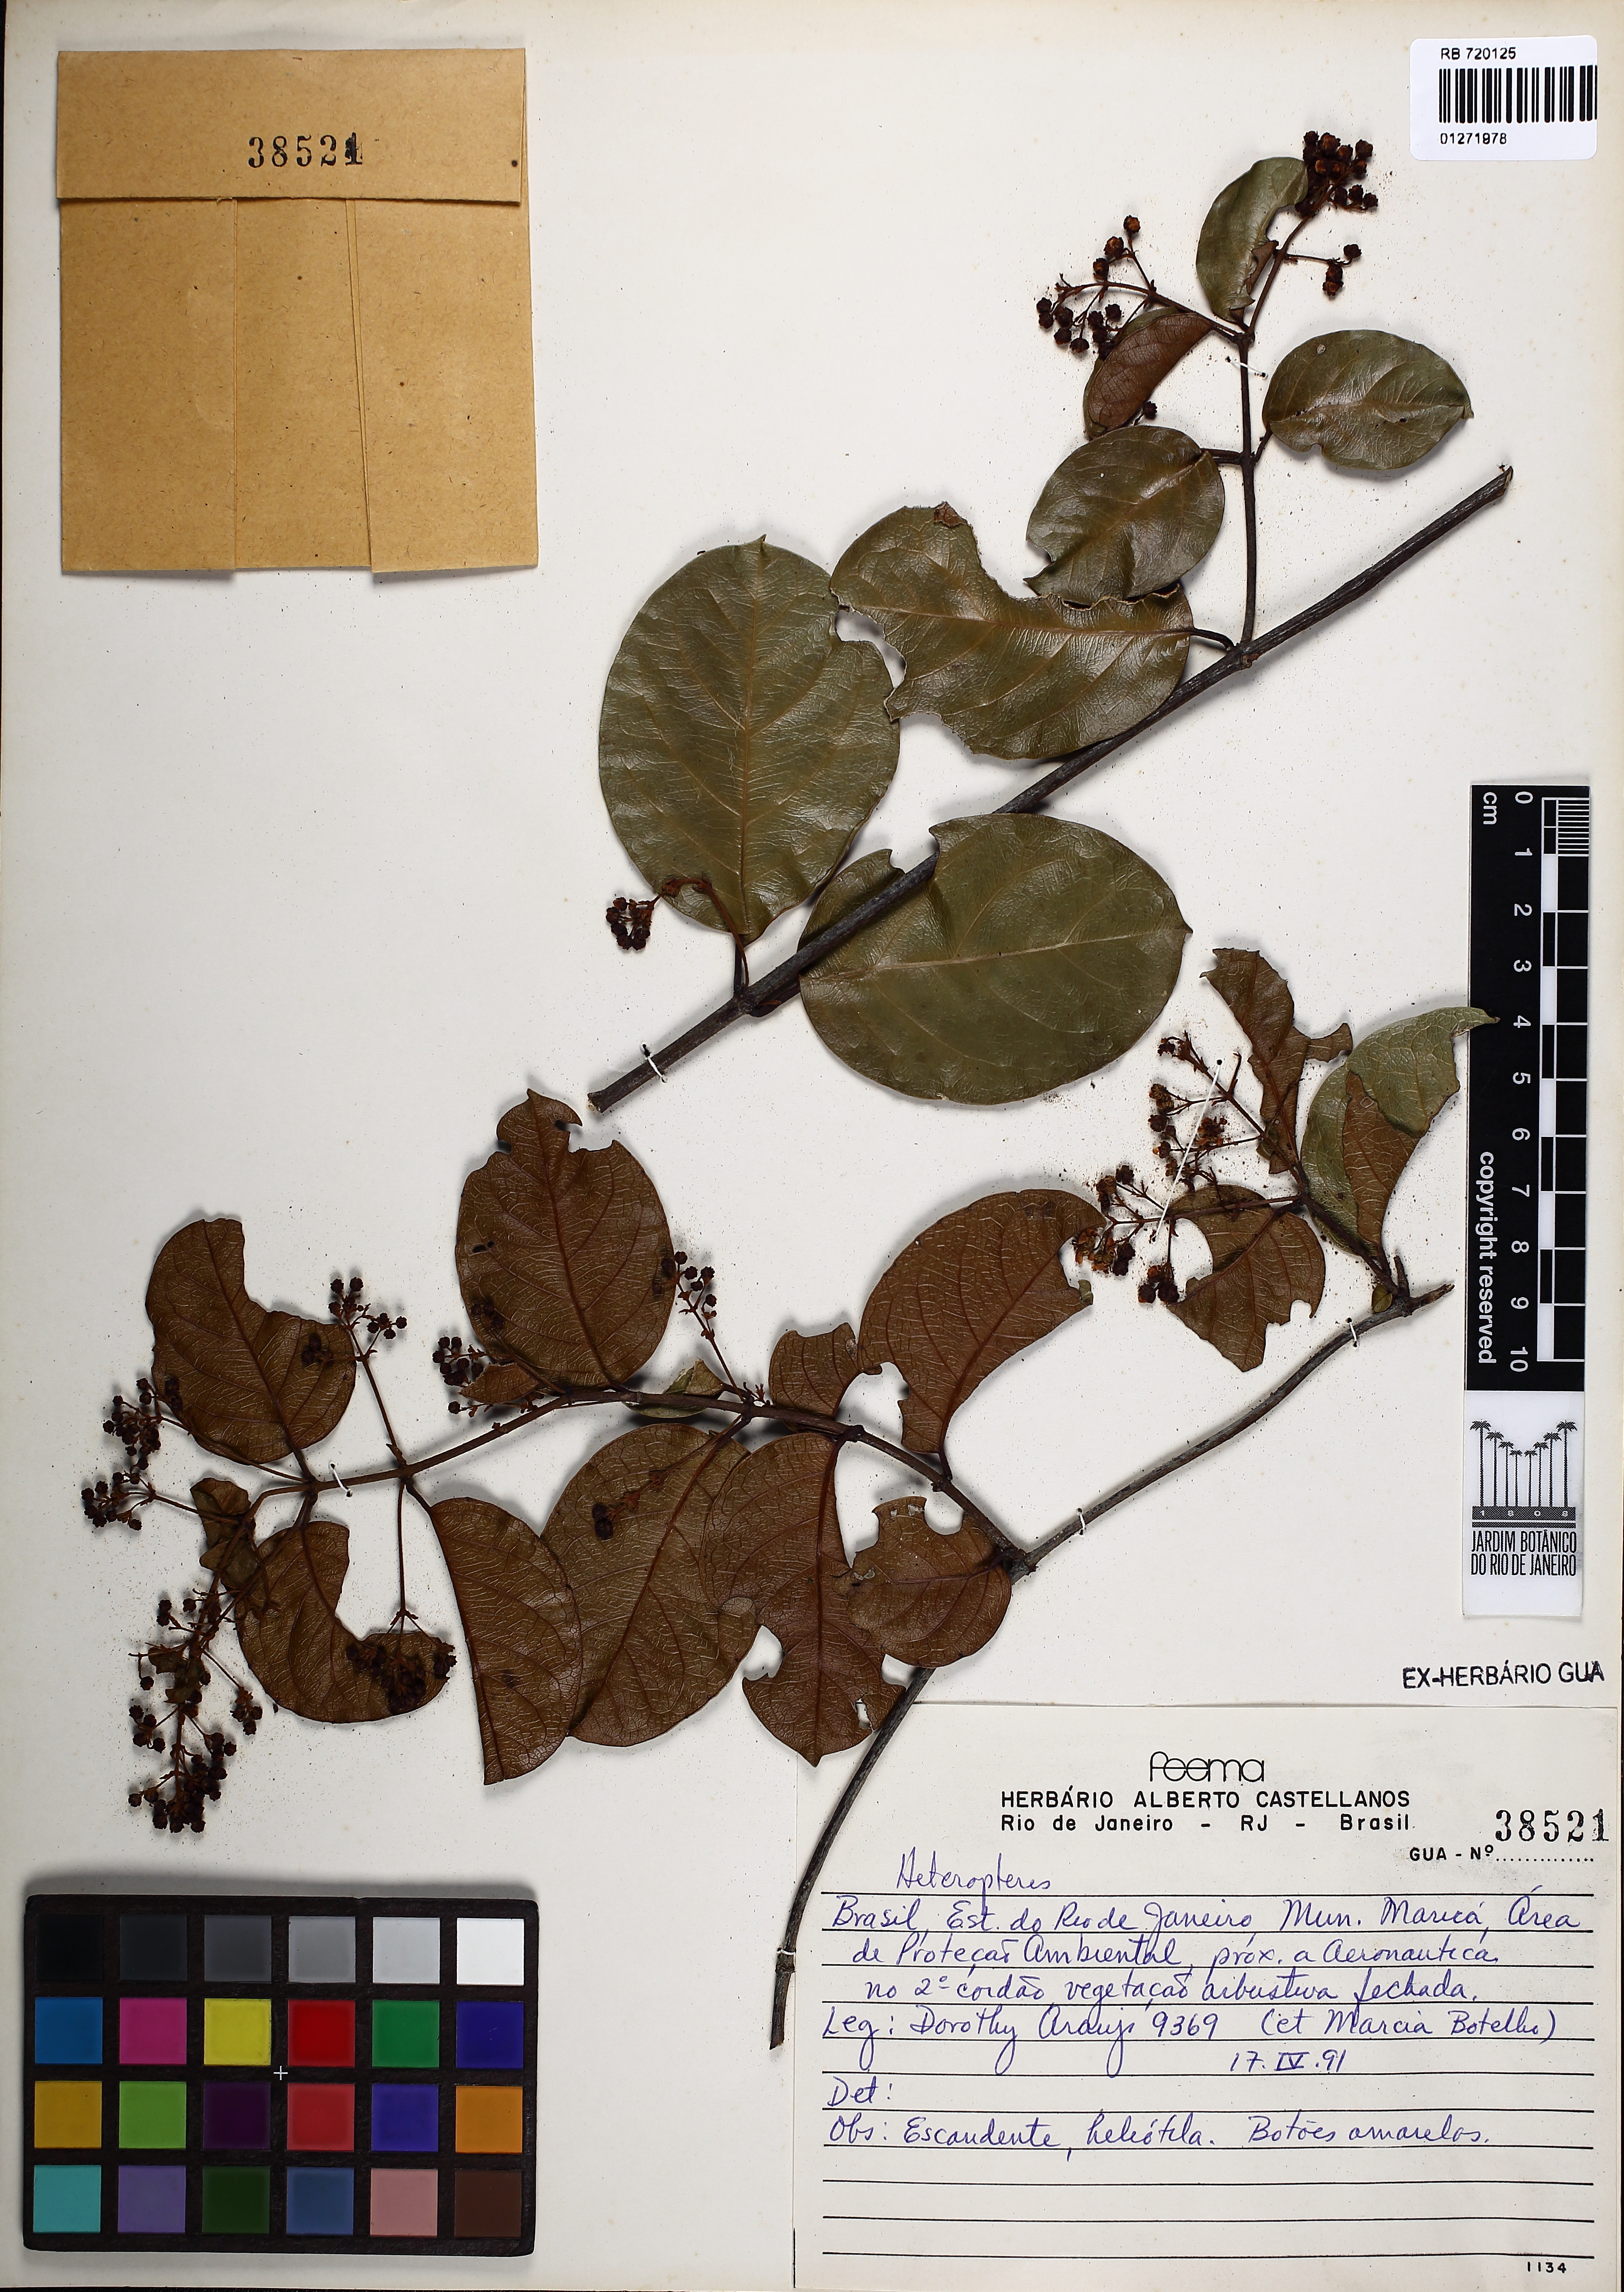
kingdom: Plantae
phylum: Tracheophyta
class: Magnoliopsida
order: Malpighiales
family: Malpighiaceae
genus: Heteropterys
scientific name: Heteropterys
